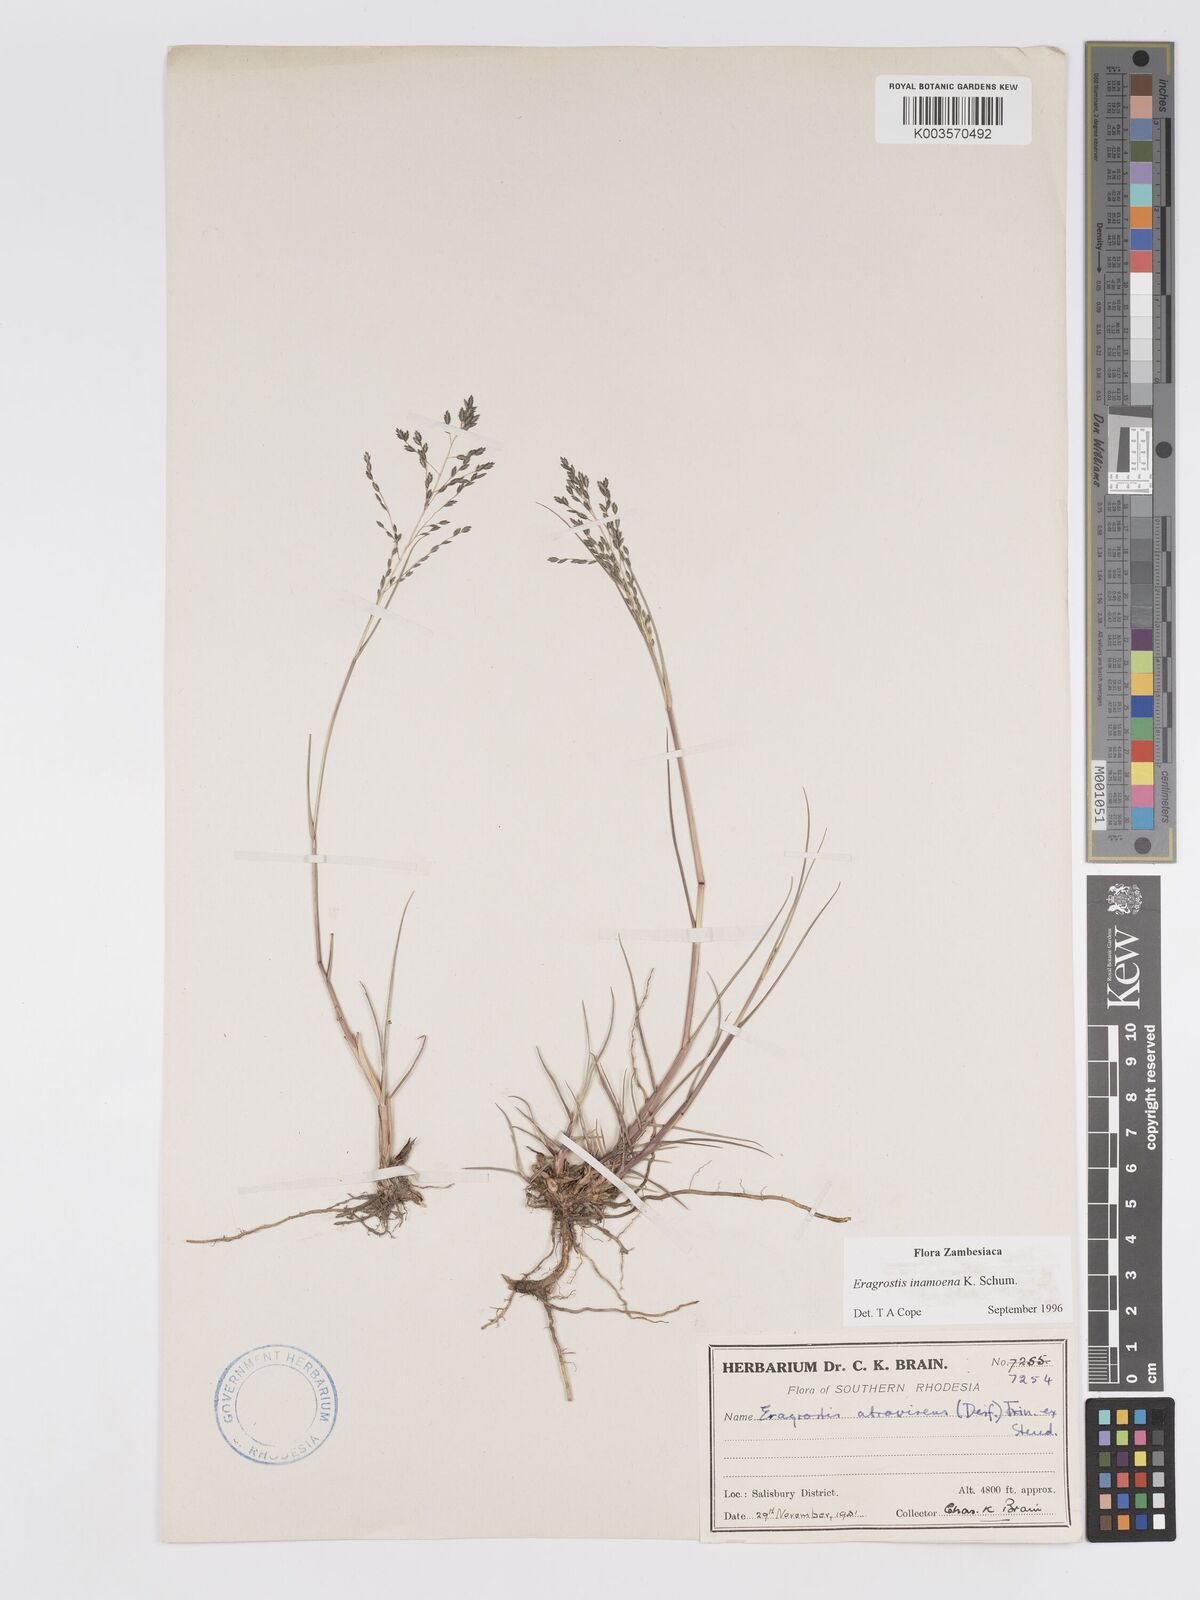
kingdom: Plantae
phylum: Tracheophyta
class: Liliopsida
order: Poales
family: Poaceae
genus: Eragrostis
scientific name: Eragrostis inamoena
